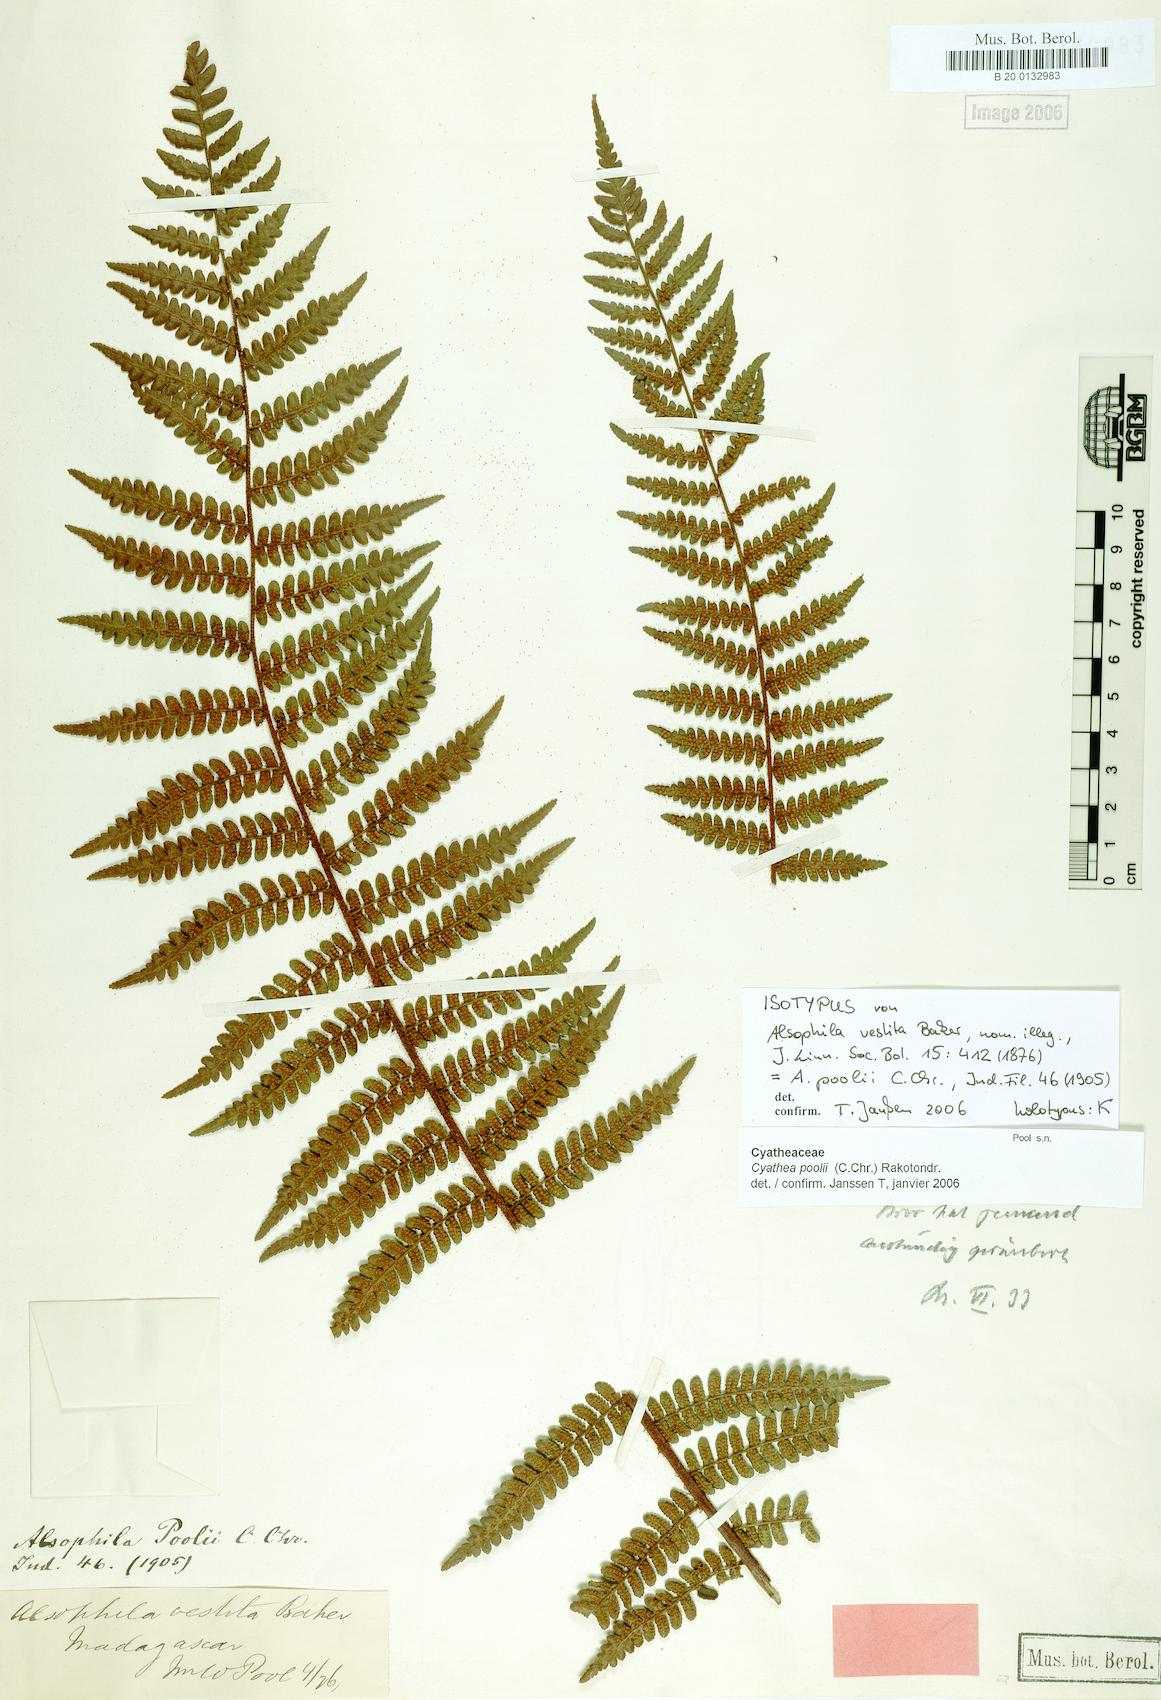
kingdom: Plantae
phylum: Tracheophyta
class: Polypodiopsida
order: Cyatheales
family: Cyatheaceae
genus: Gymnosphaera
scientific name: Gymnosphaera poolii
